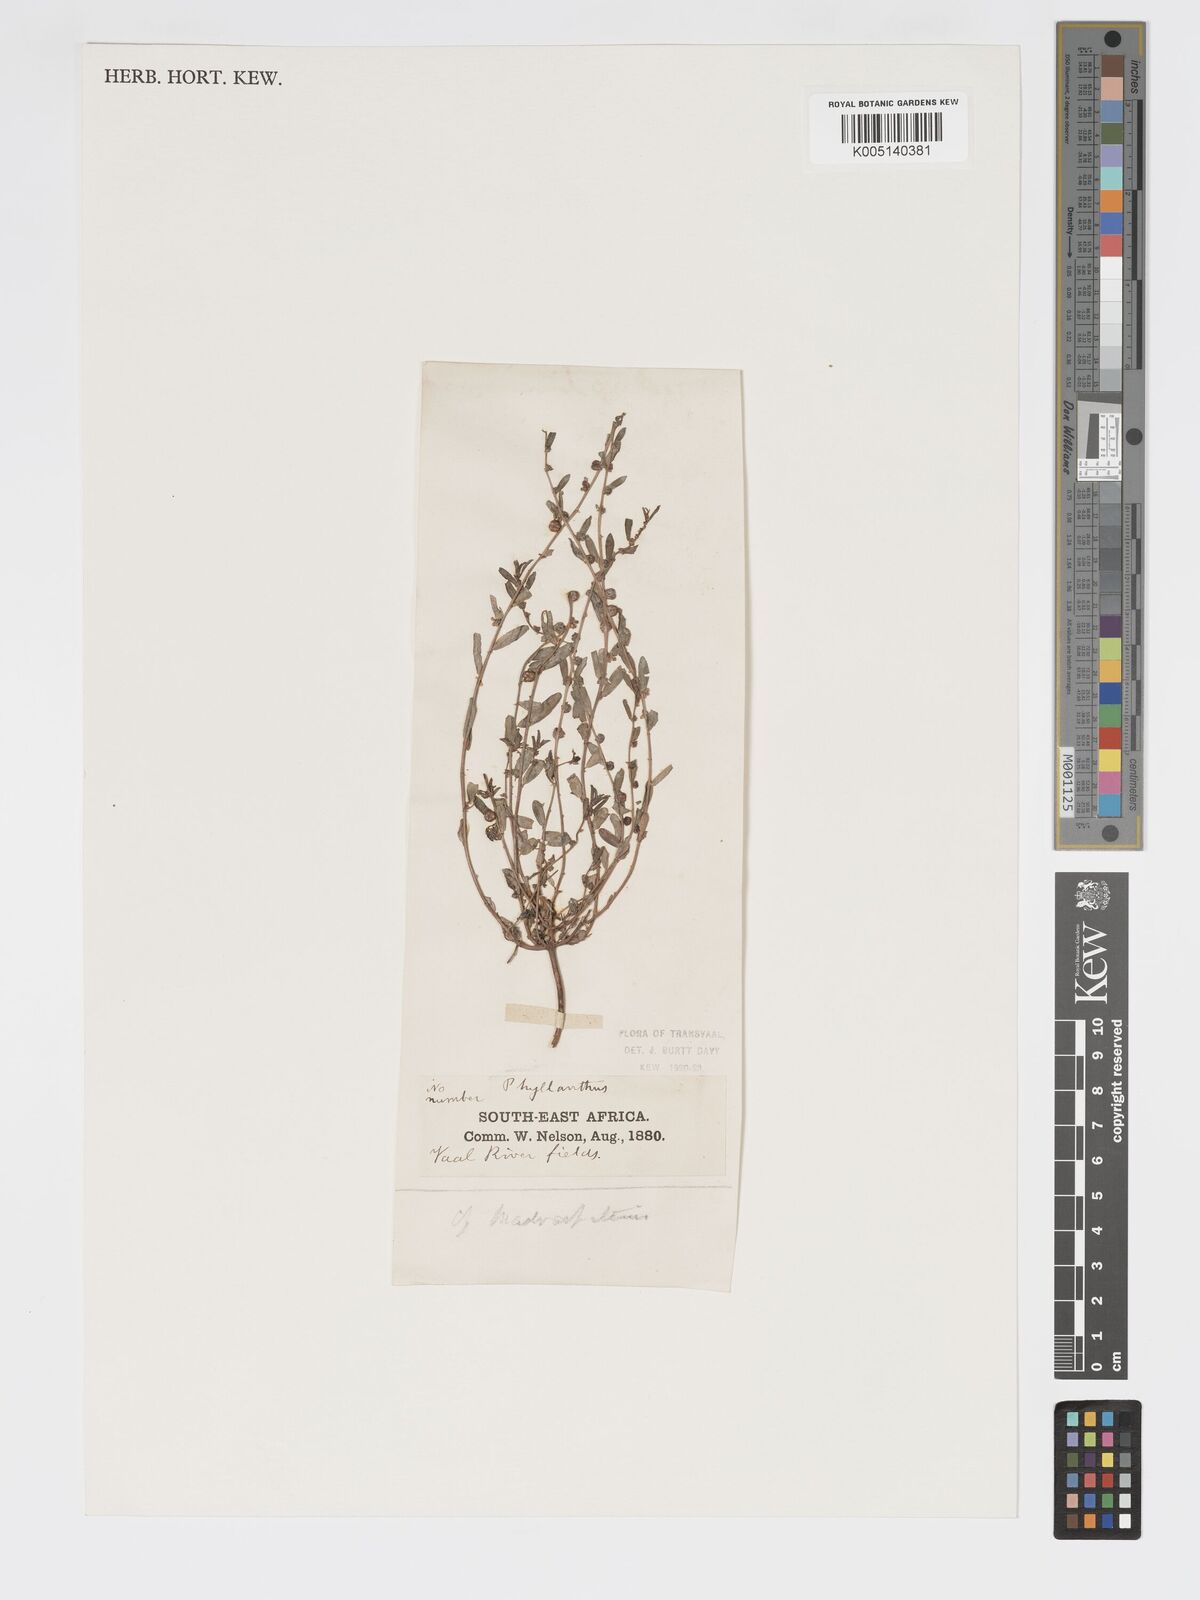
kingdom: Plantae
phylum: Tracheophyta
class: Magnoliopsida
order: Malpighiales
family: Phyllanthaceae
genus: Phyllanthus
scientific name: Phyllanthus maderaspatensis
